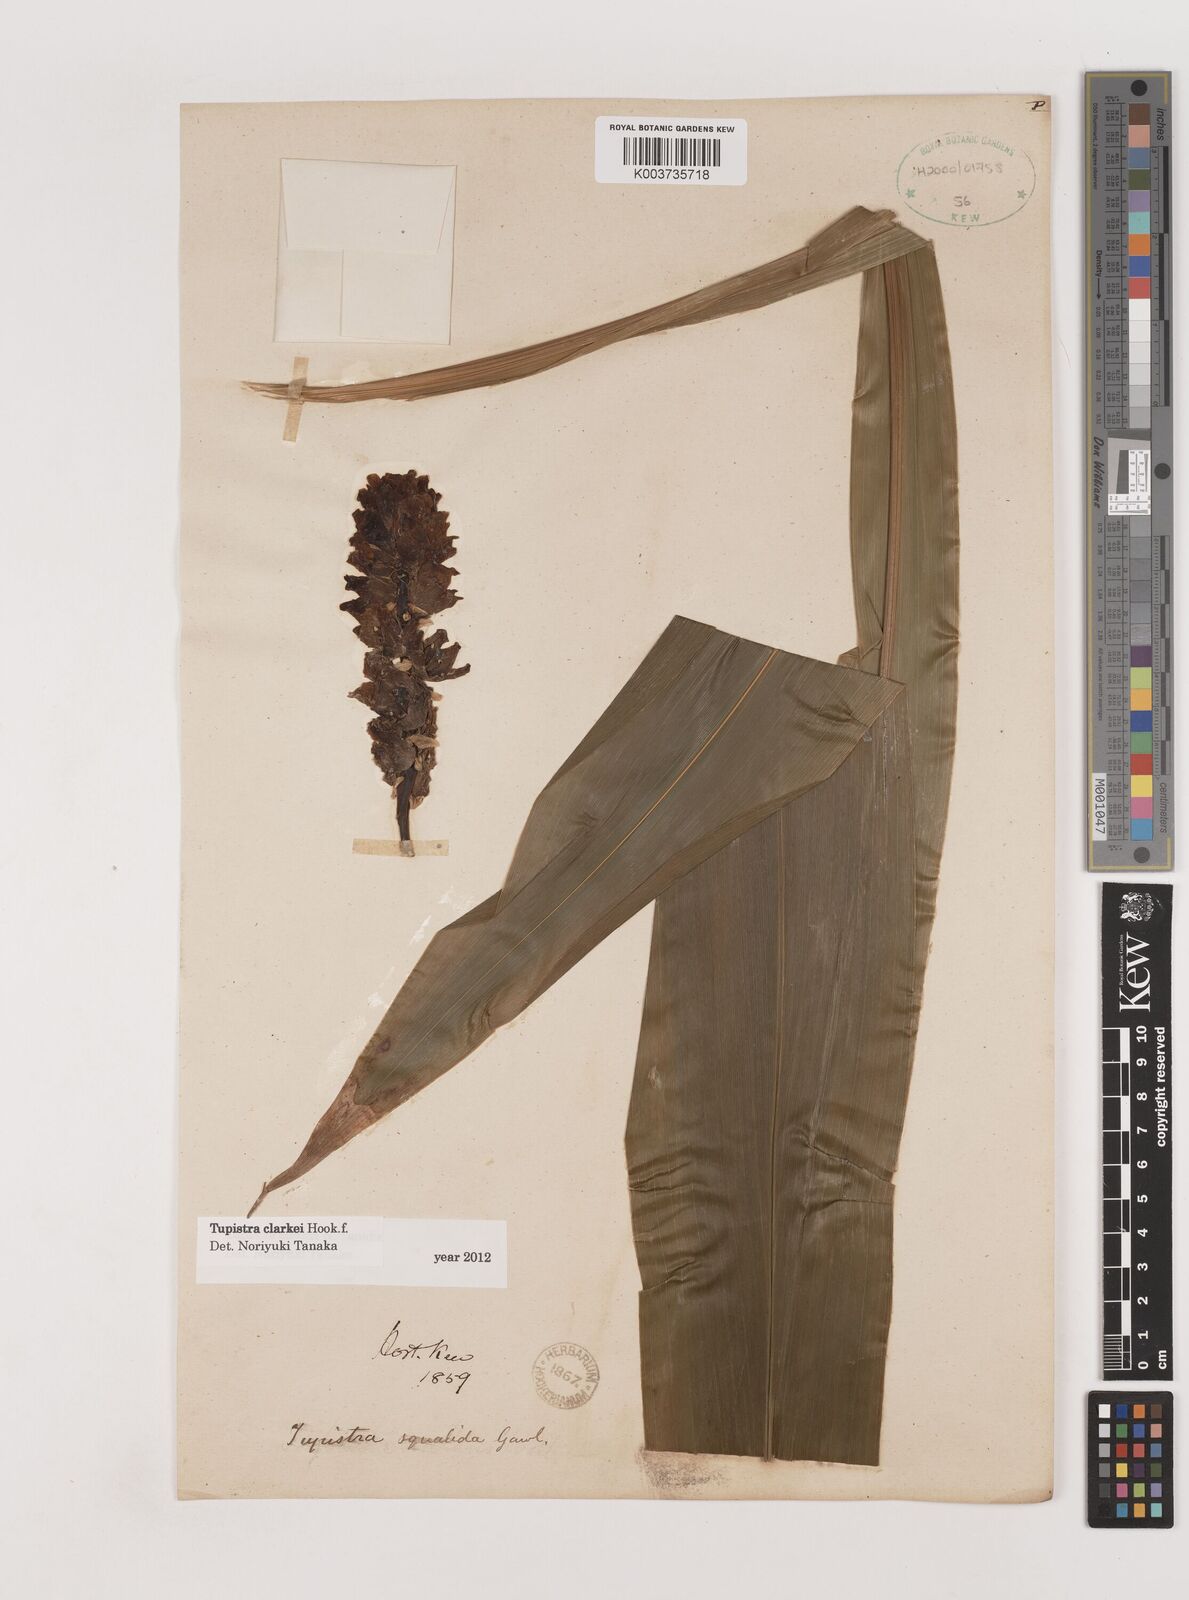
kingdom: Plantae
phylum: Tracheophyta
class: Liliopsida
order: Asparagales
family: Asparagaceae
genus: Tupistra
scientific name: Tupistra violacea
